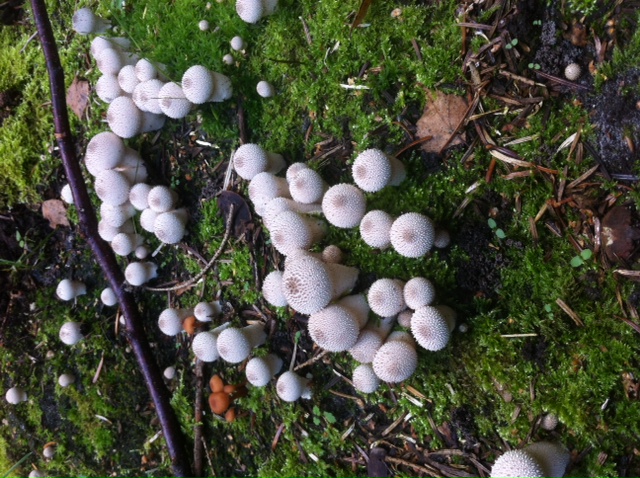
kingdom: Fungi
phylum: Basidiomycota
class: Agaricomycetes
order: Agaricales
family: Lycoperdaceae
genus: Lycoperdon
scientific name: Lycoperdon perlatum
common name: krystal-støvbold
